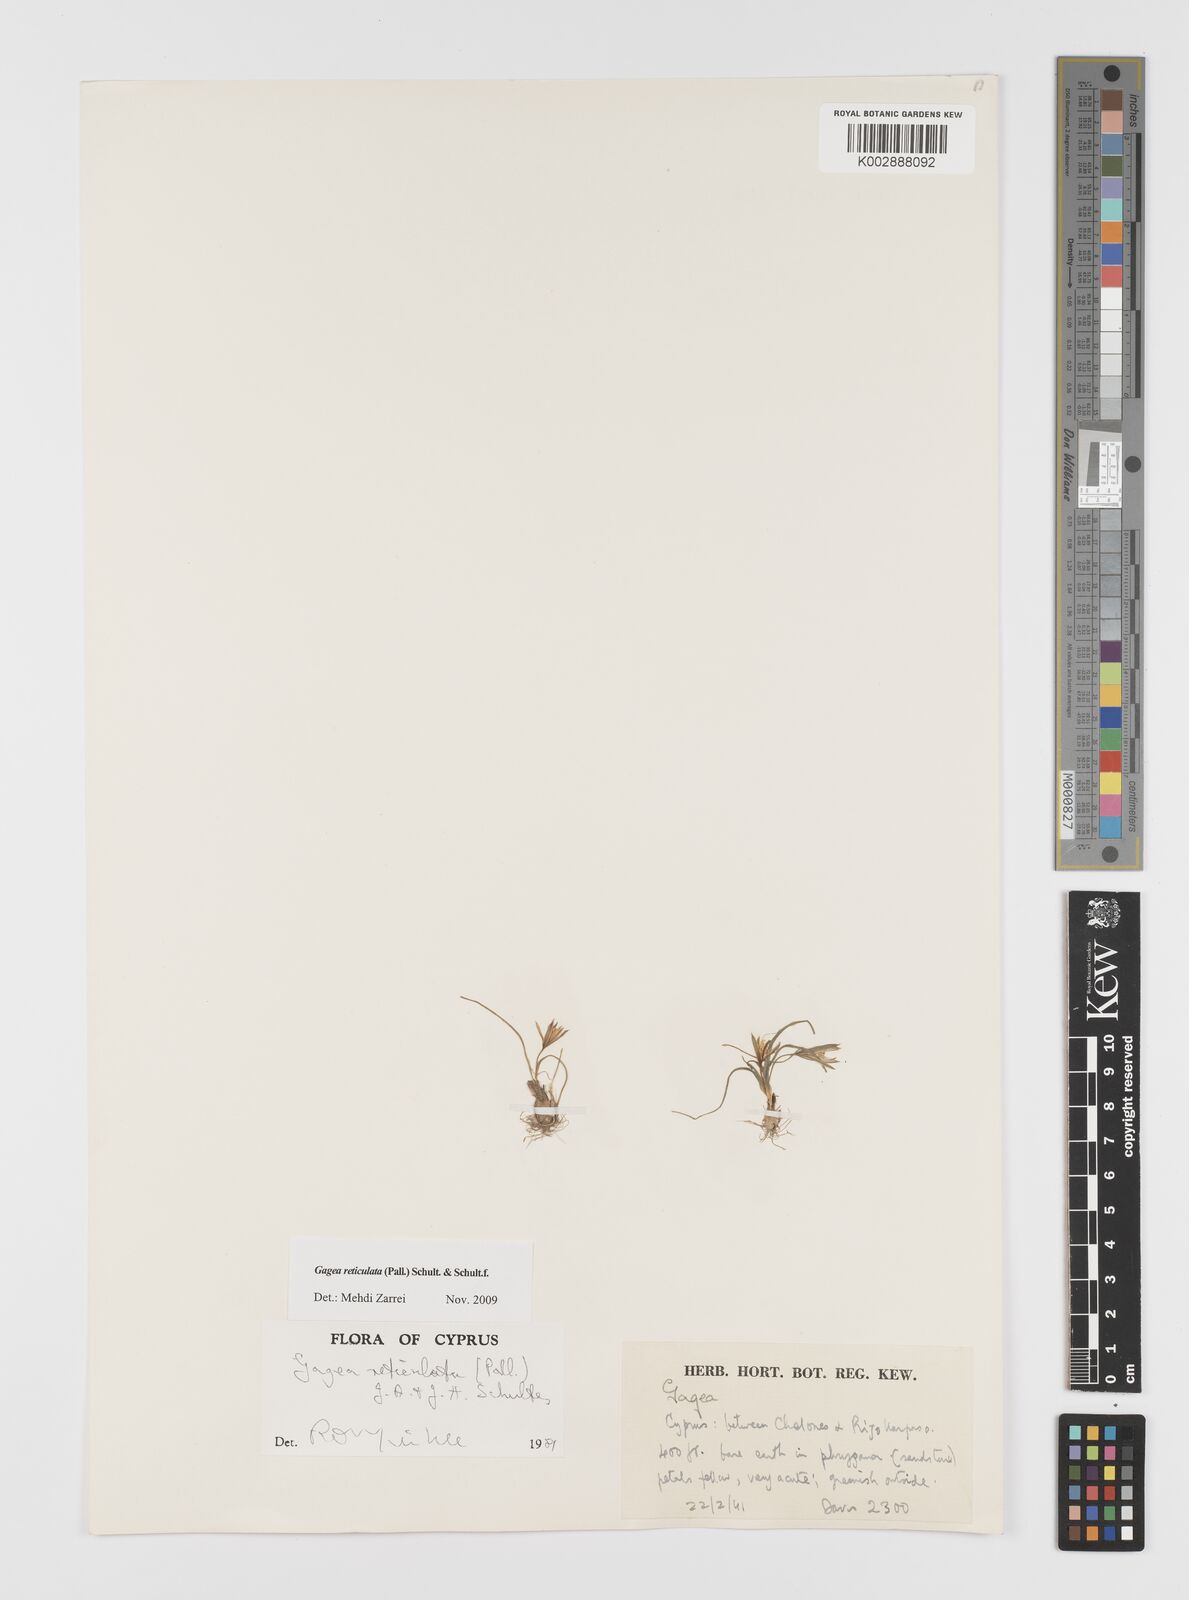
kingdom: Plantae
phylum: Tracheophyta
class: Liliopsida
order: Liliales
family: Liliaceae
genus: Gagea
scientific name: Gagea reticulata
